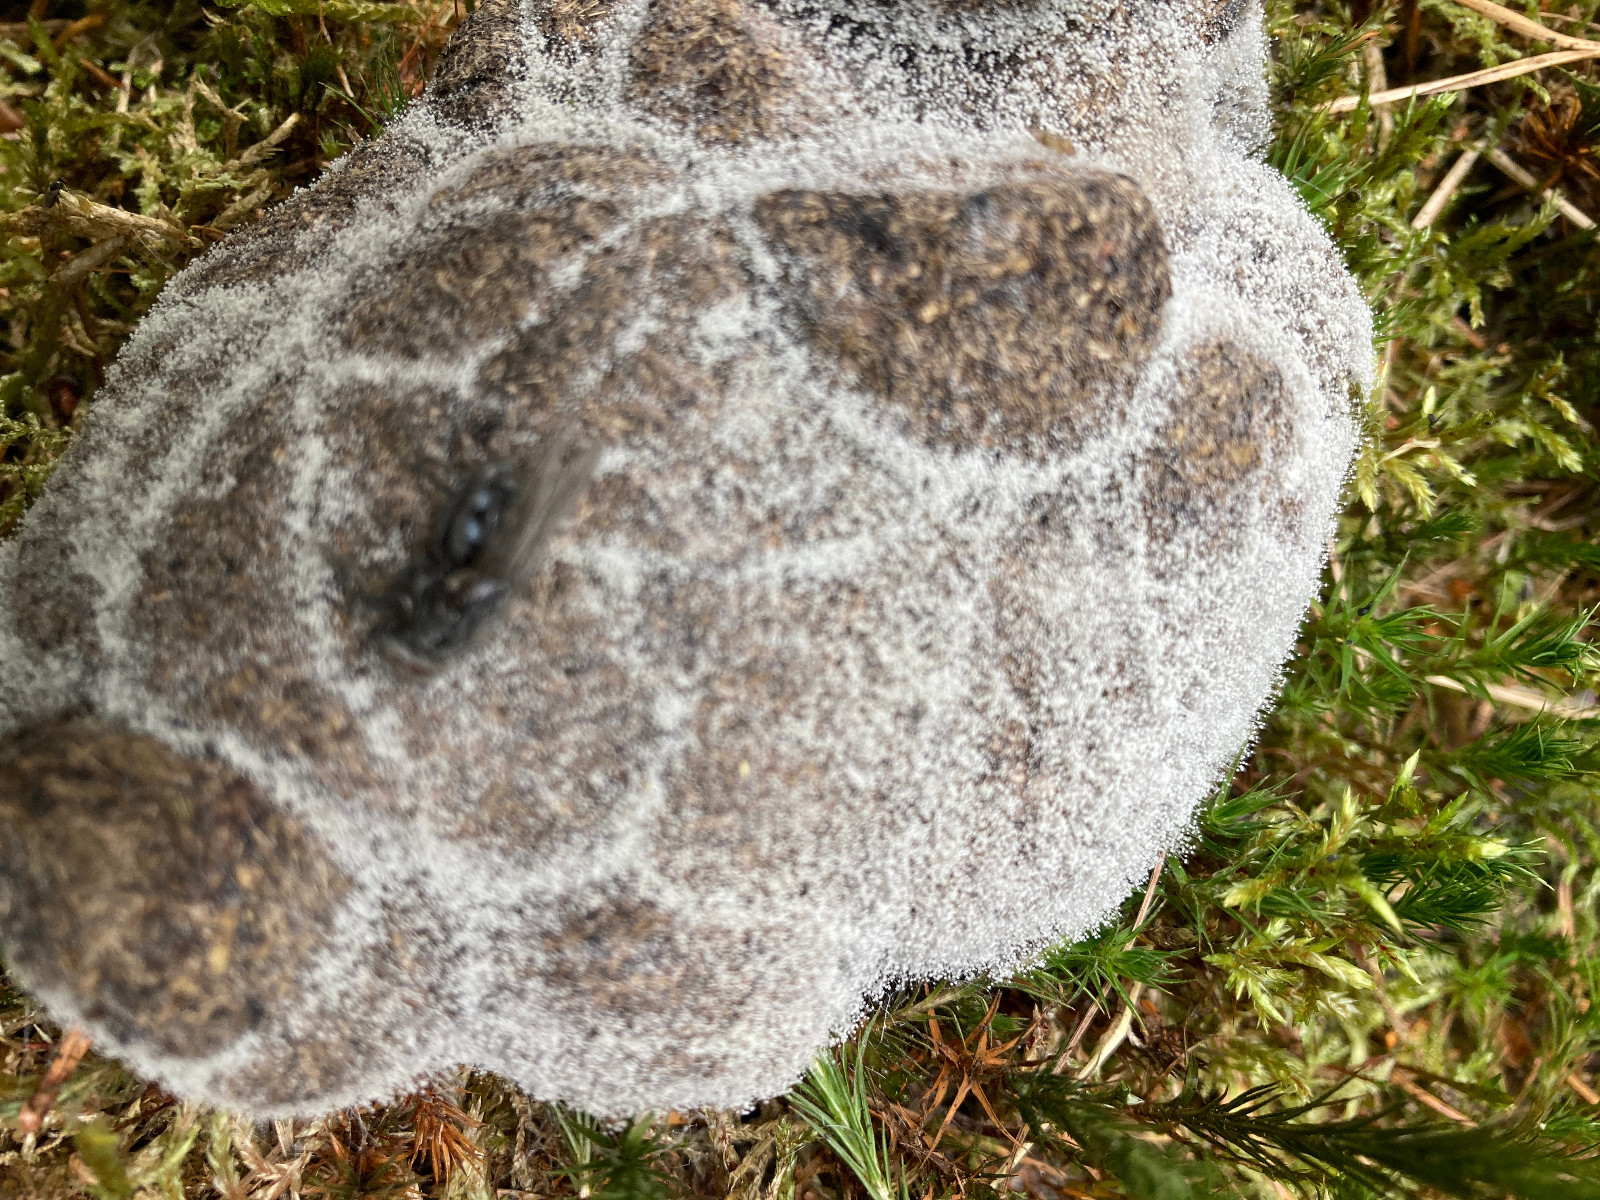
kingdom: Fungi
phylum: Mucoromycota
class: Mucoromycetes
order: Mucorales
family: Pilobolaceae
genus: Pilobolus
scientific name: Pilobolus
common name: boldkaster
